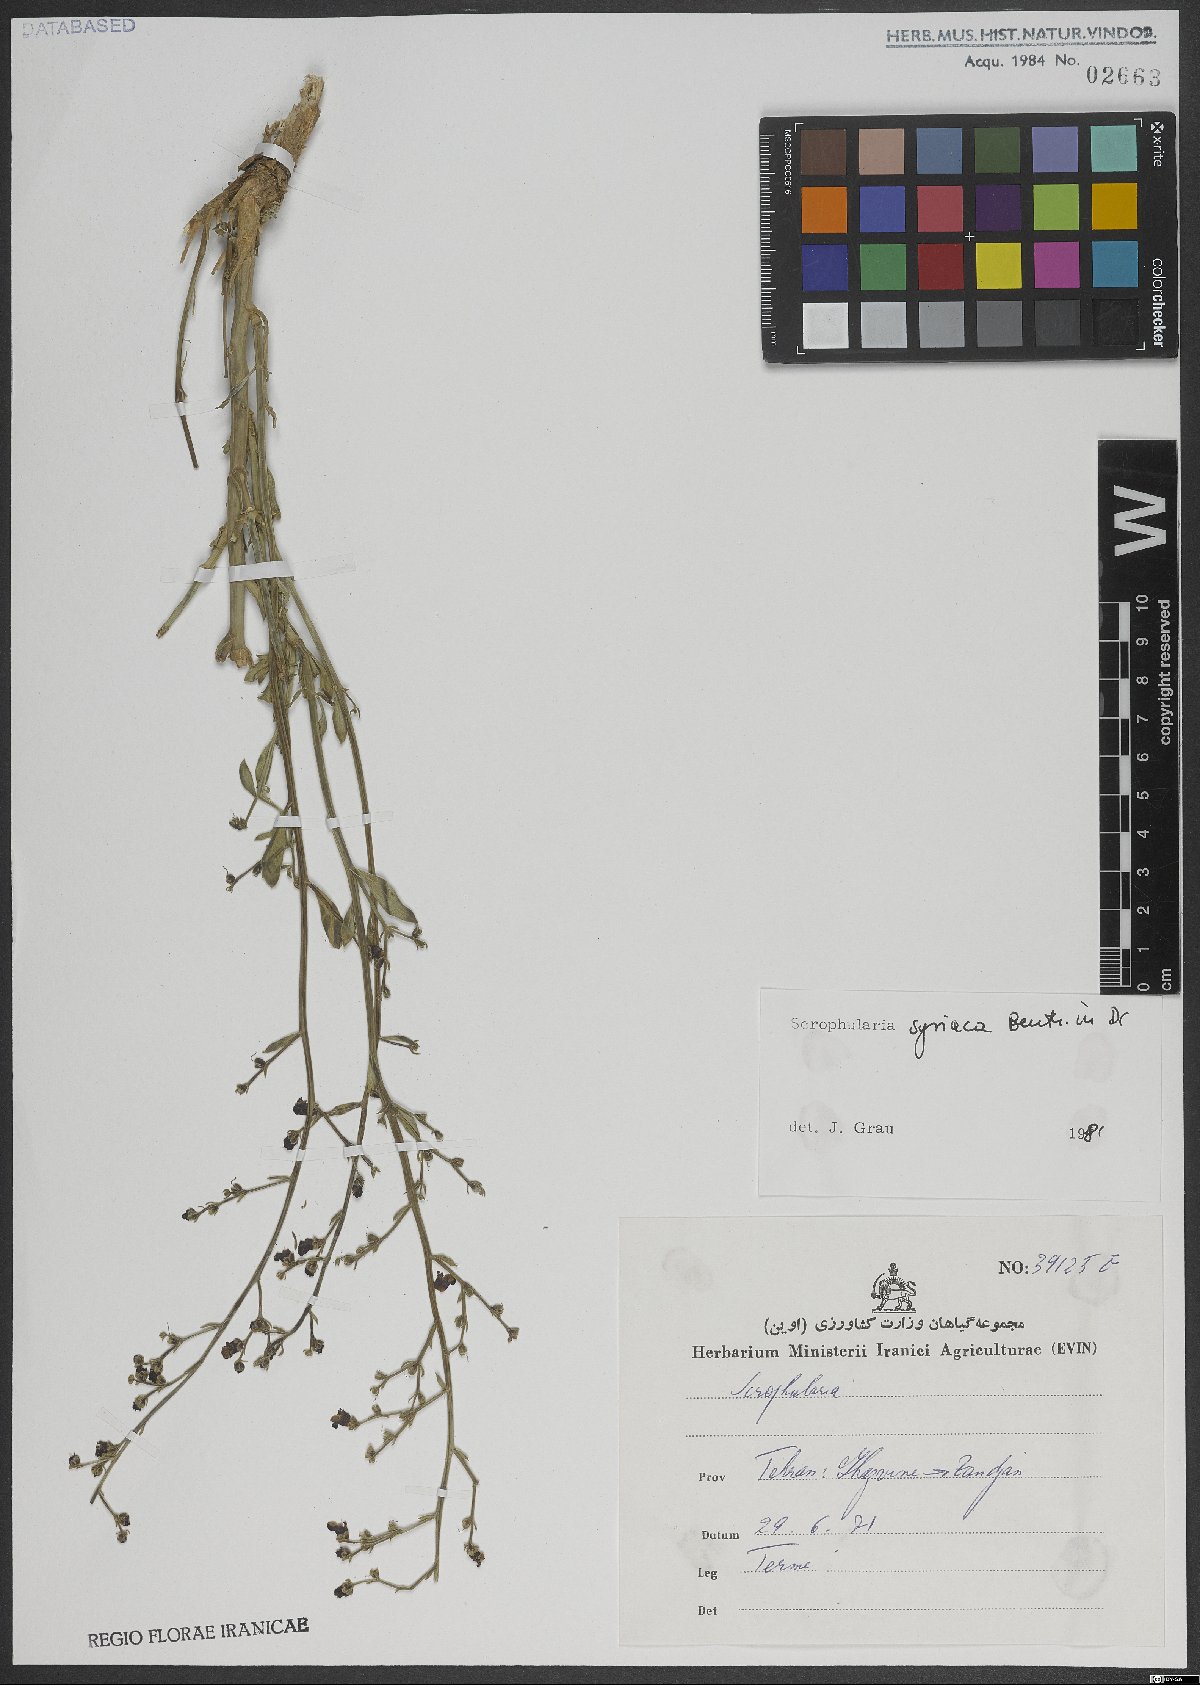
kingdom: Plantae
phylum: Tracheophyta
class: Magnoliopsida
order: Lamiales
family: Scrophulariaceae
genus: Scrophularia
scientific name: Scrophularia hypericifolia
